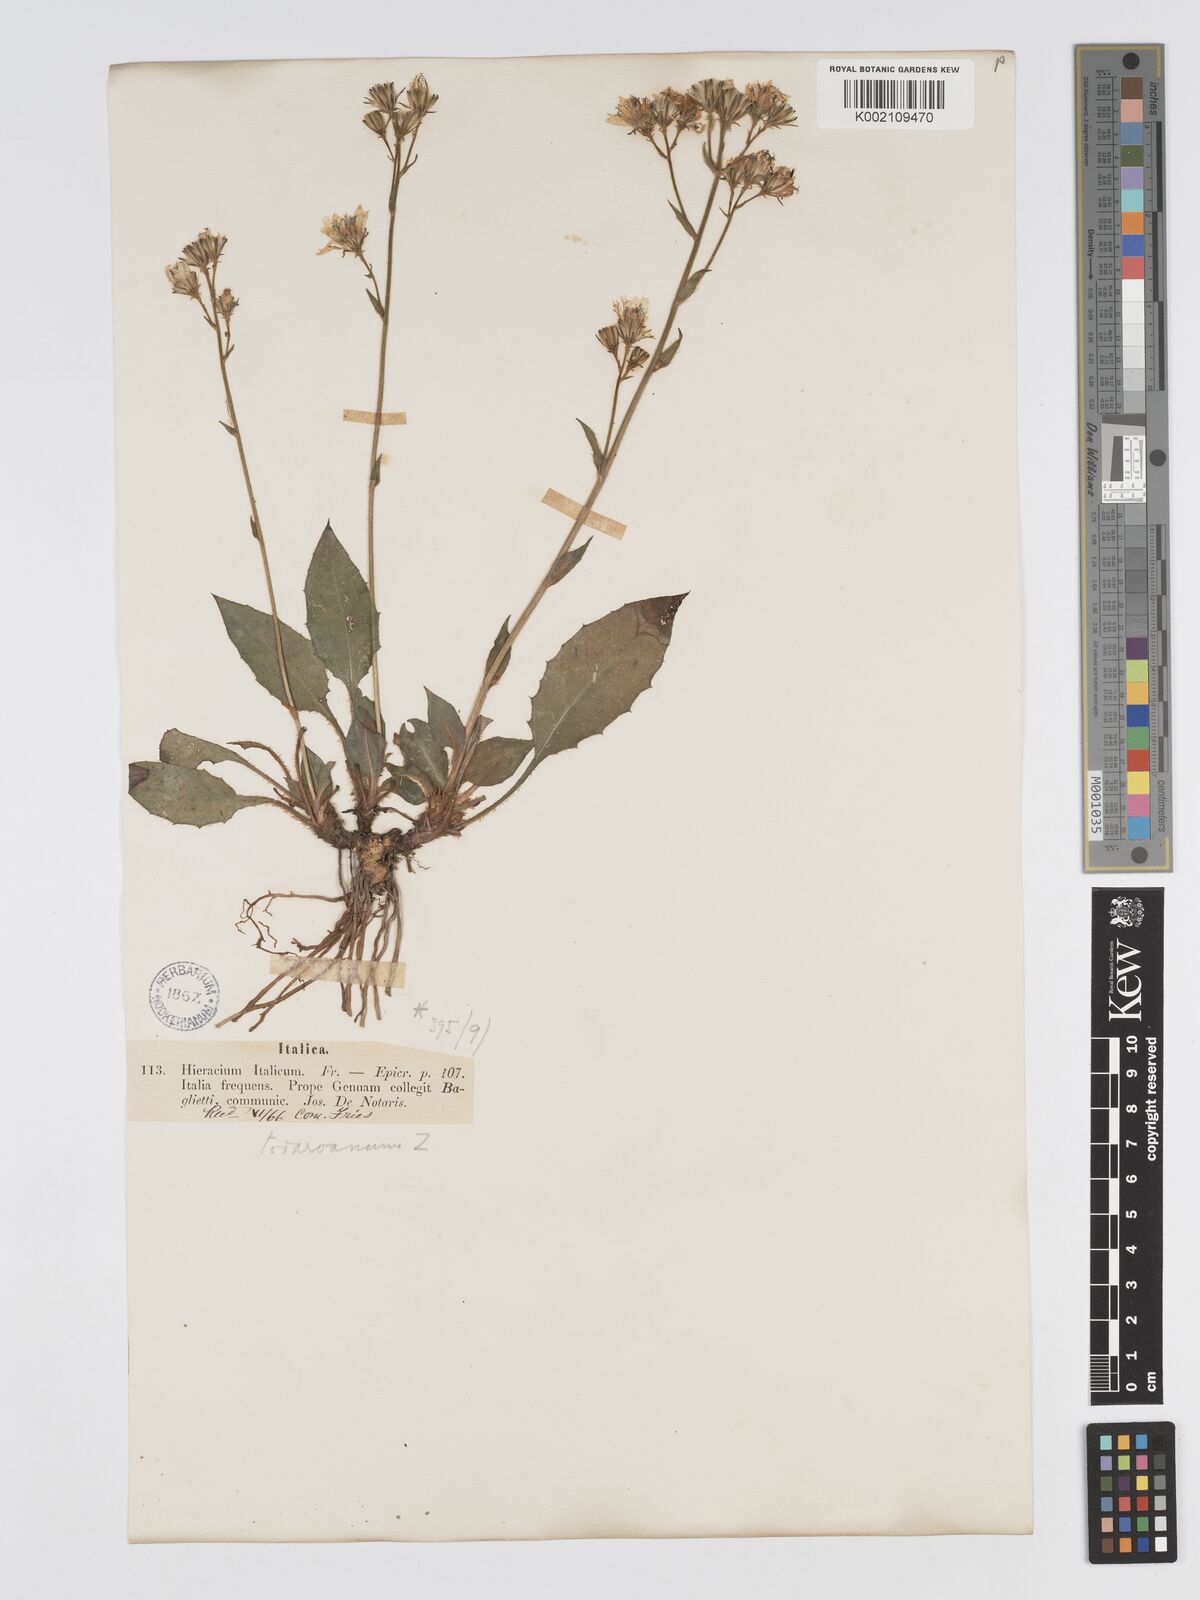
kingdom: Plantae
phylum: Tracheophyta
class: Magnoliopsida
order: Asterales
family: Asteraceae
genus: Hieracium
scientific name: Hieracium racemosum
